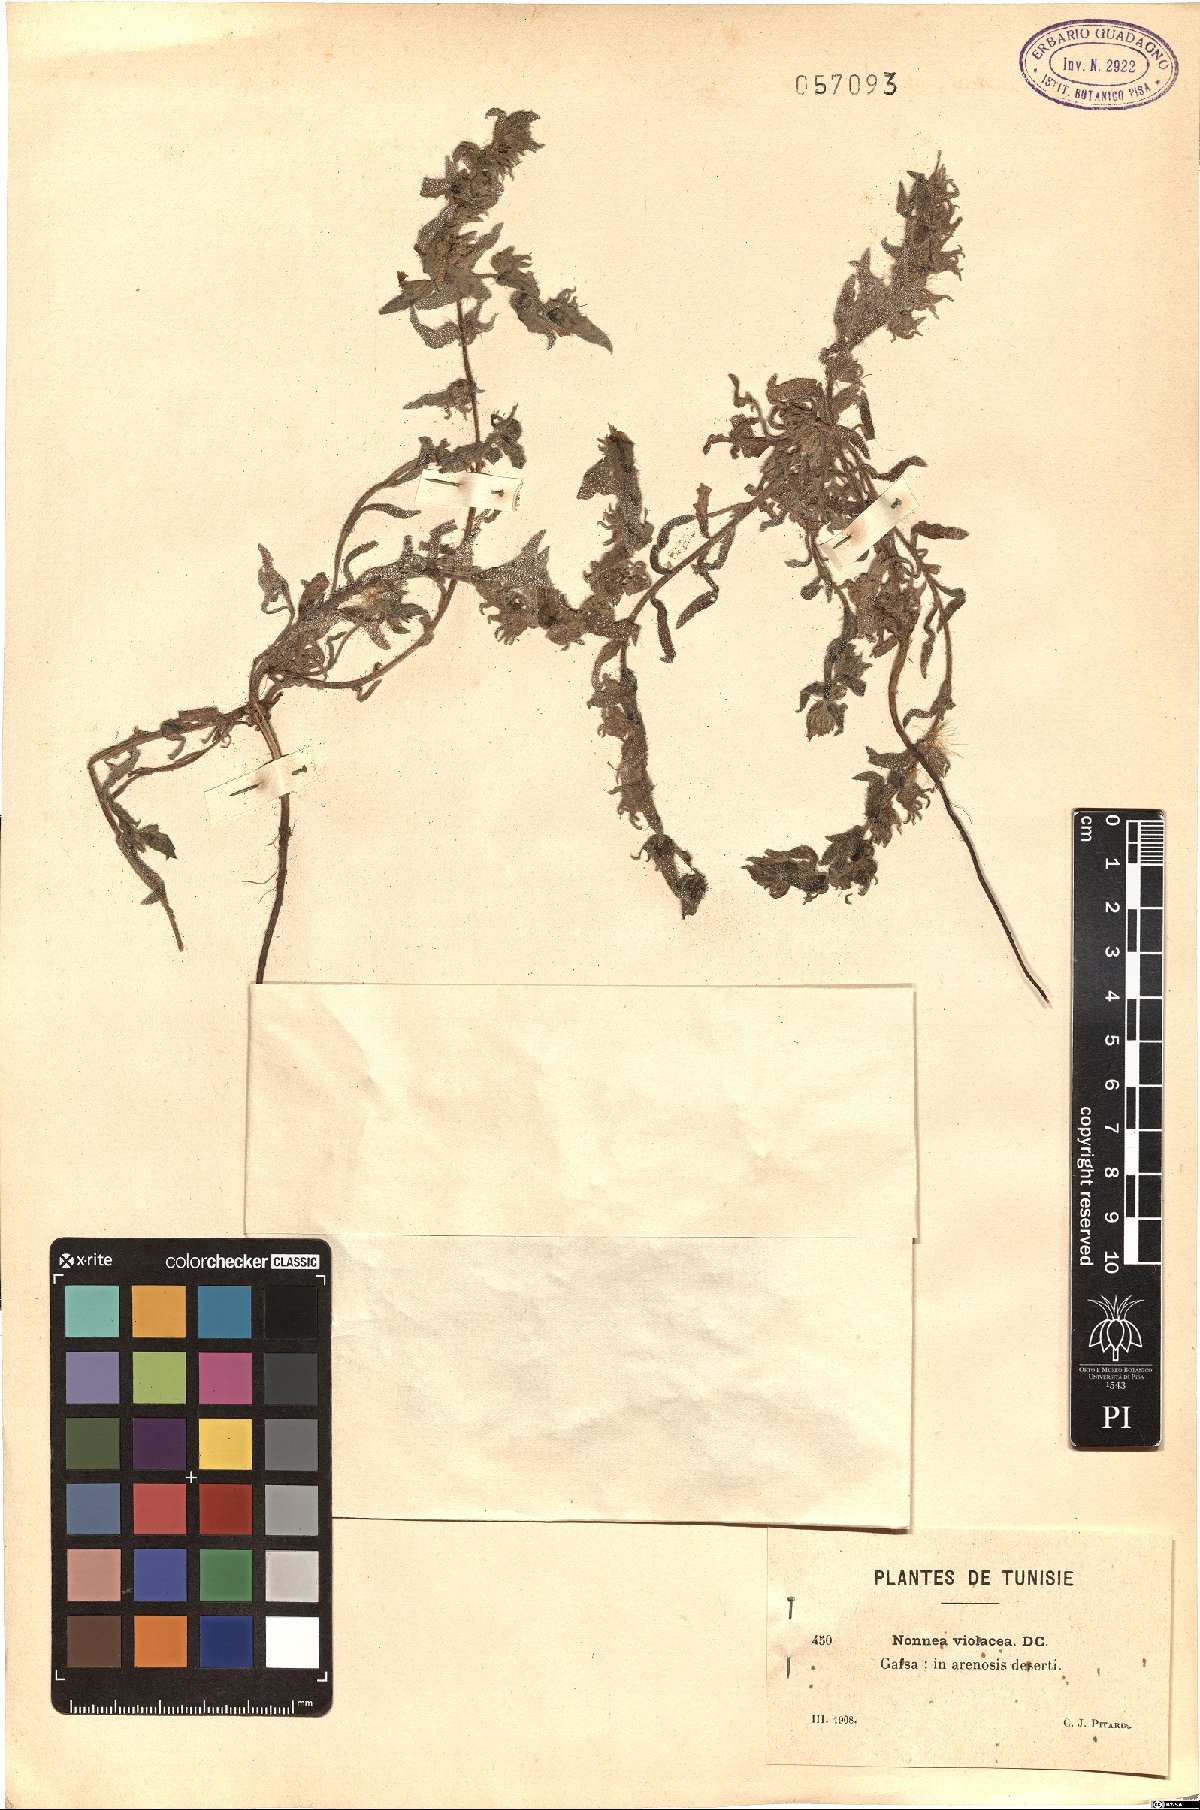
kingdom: Plantae
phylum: Tracheophyta
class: Magnoliopsida
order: Boraginales
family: Boraginaceae
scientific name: Boraginaceae
